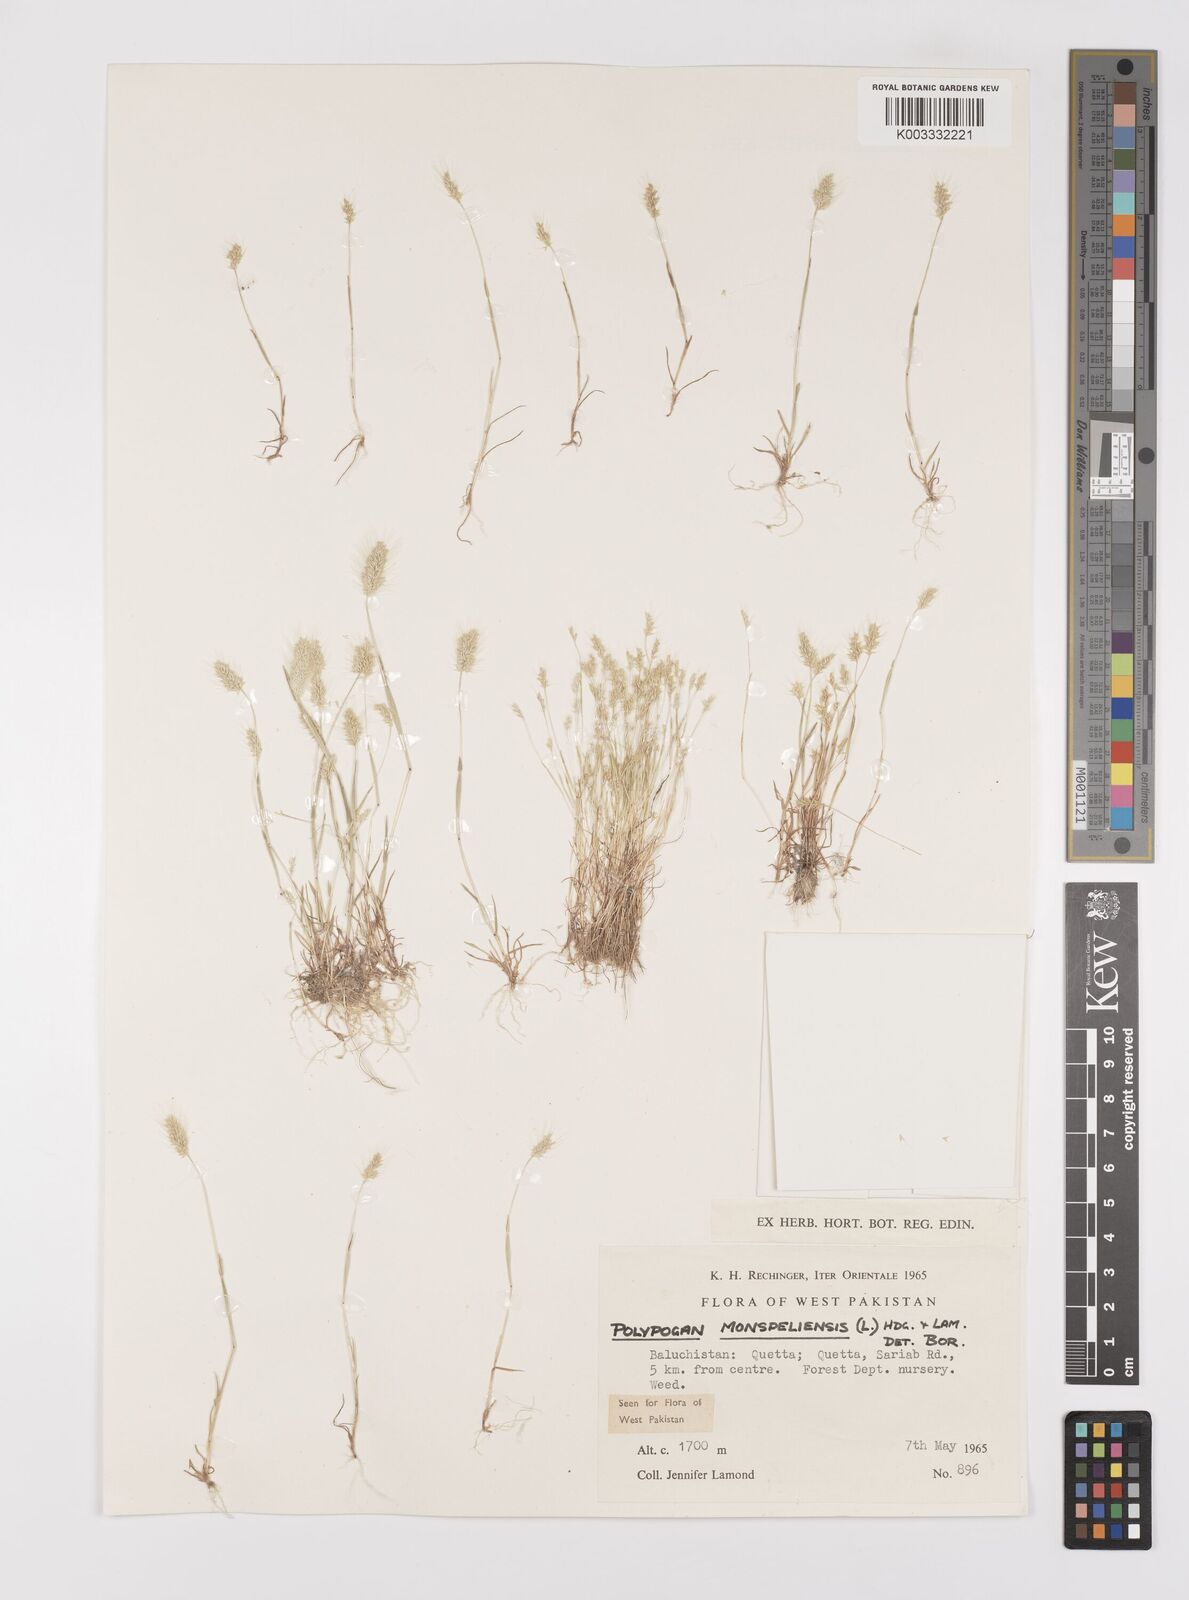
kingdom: Plantae
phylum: Tracheophyta
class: Liliopsida
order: Poales
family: Poaceae
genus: Polypogon
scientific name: Polypogon monspeliensis
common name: Annual rabbitsfoot grass
